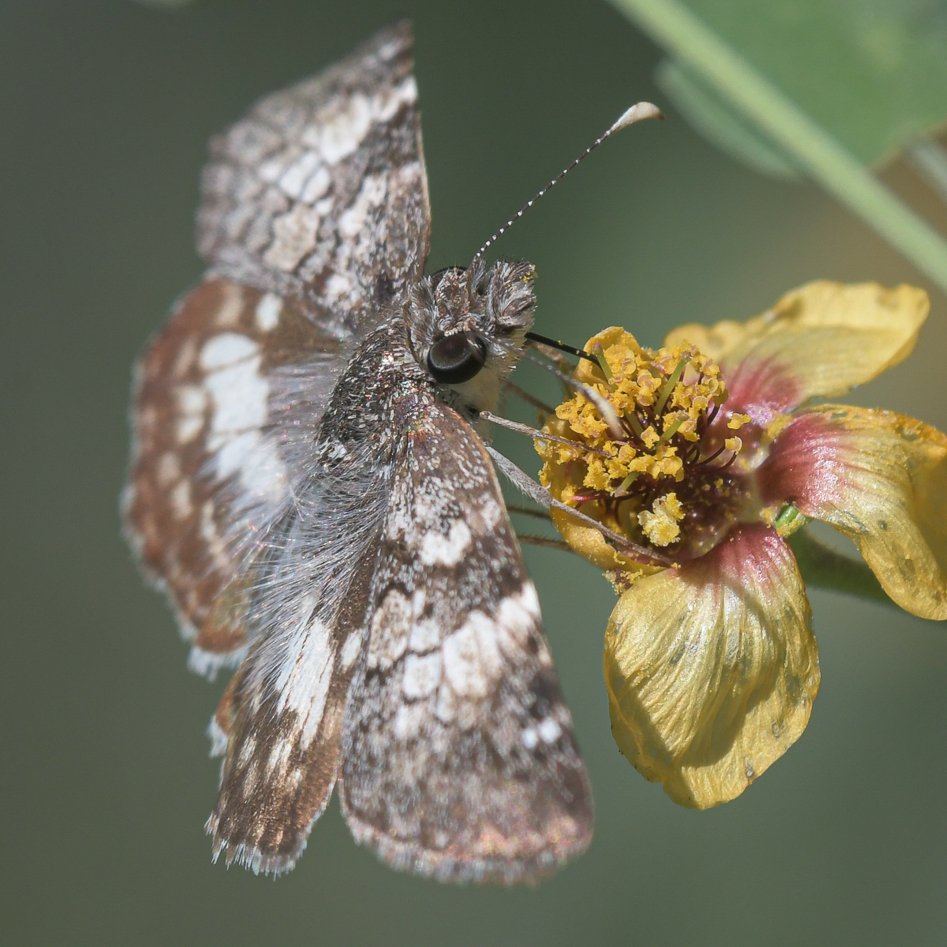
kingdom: Animalia
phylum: Arthropoda
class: Insecta
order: Lepidoptera
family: Hesperiidae
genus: Chiomara
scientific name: Chiomara asychis
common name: White-patched Skipper
